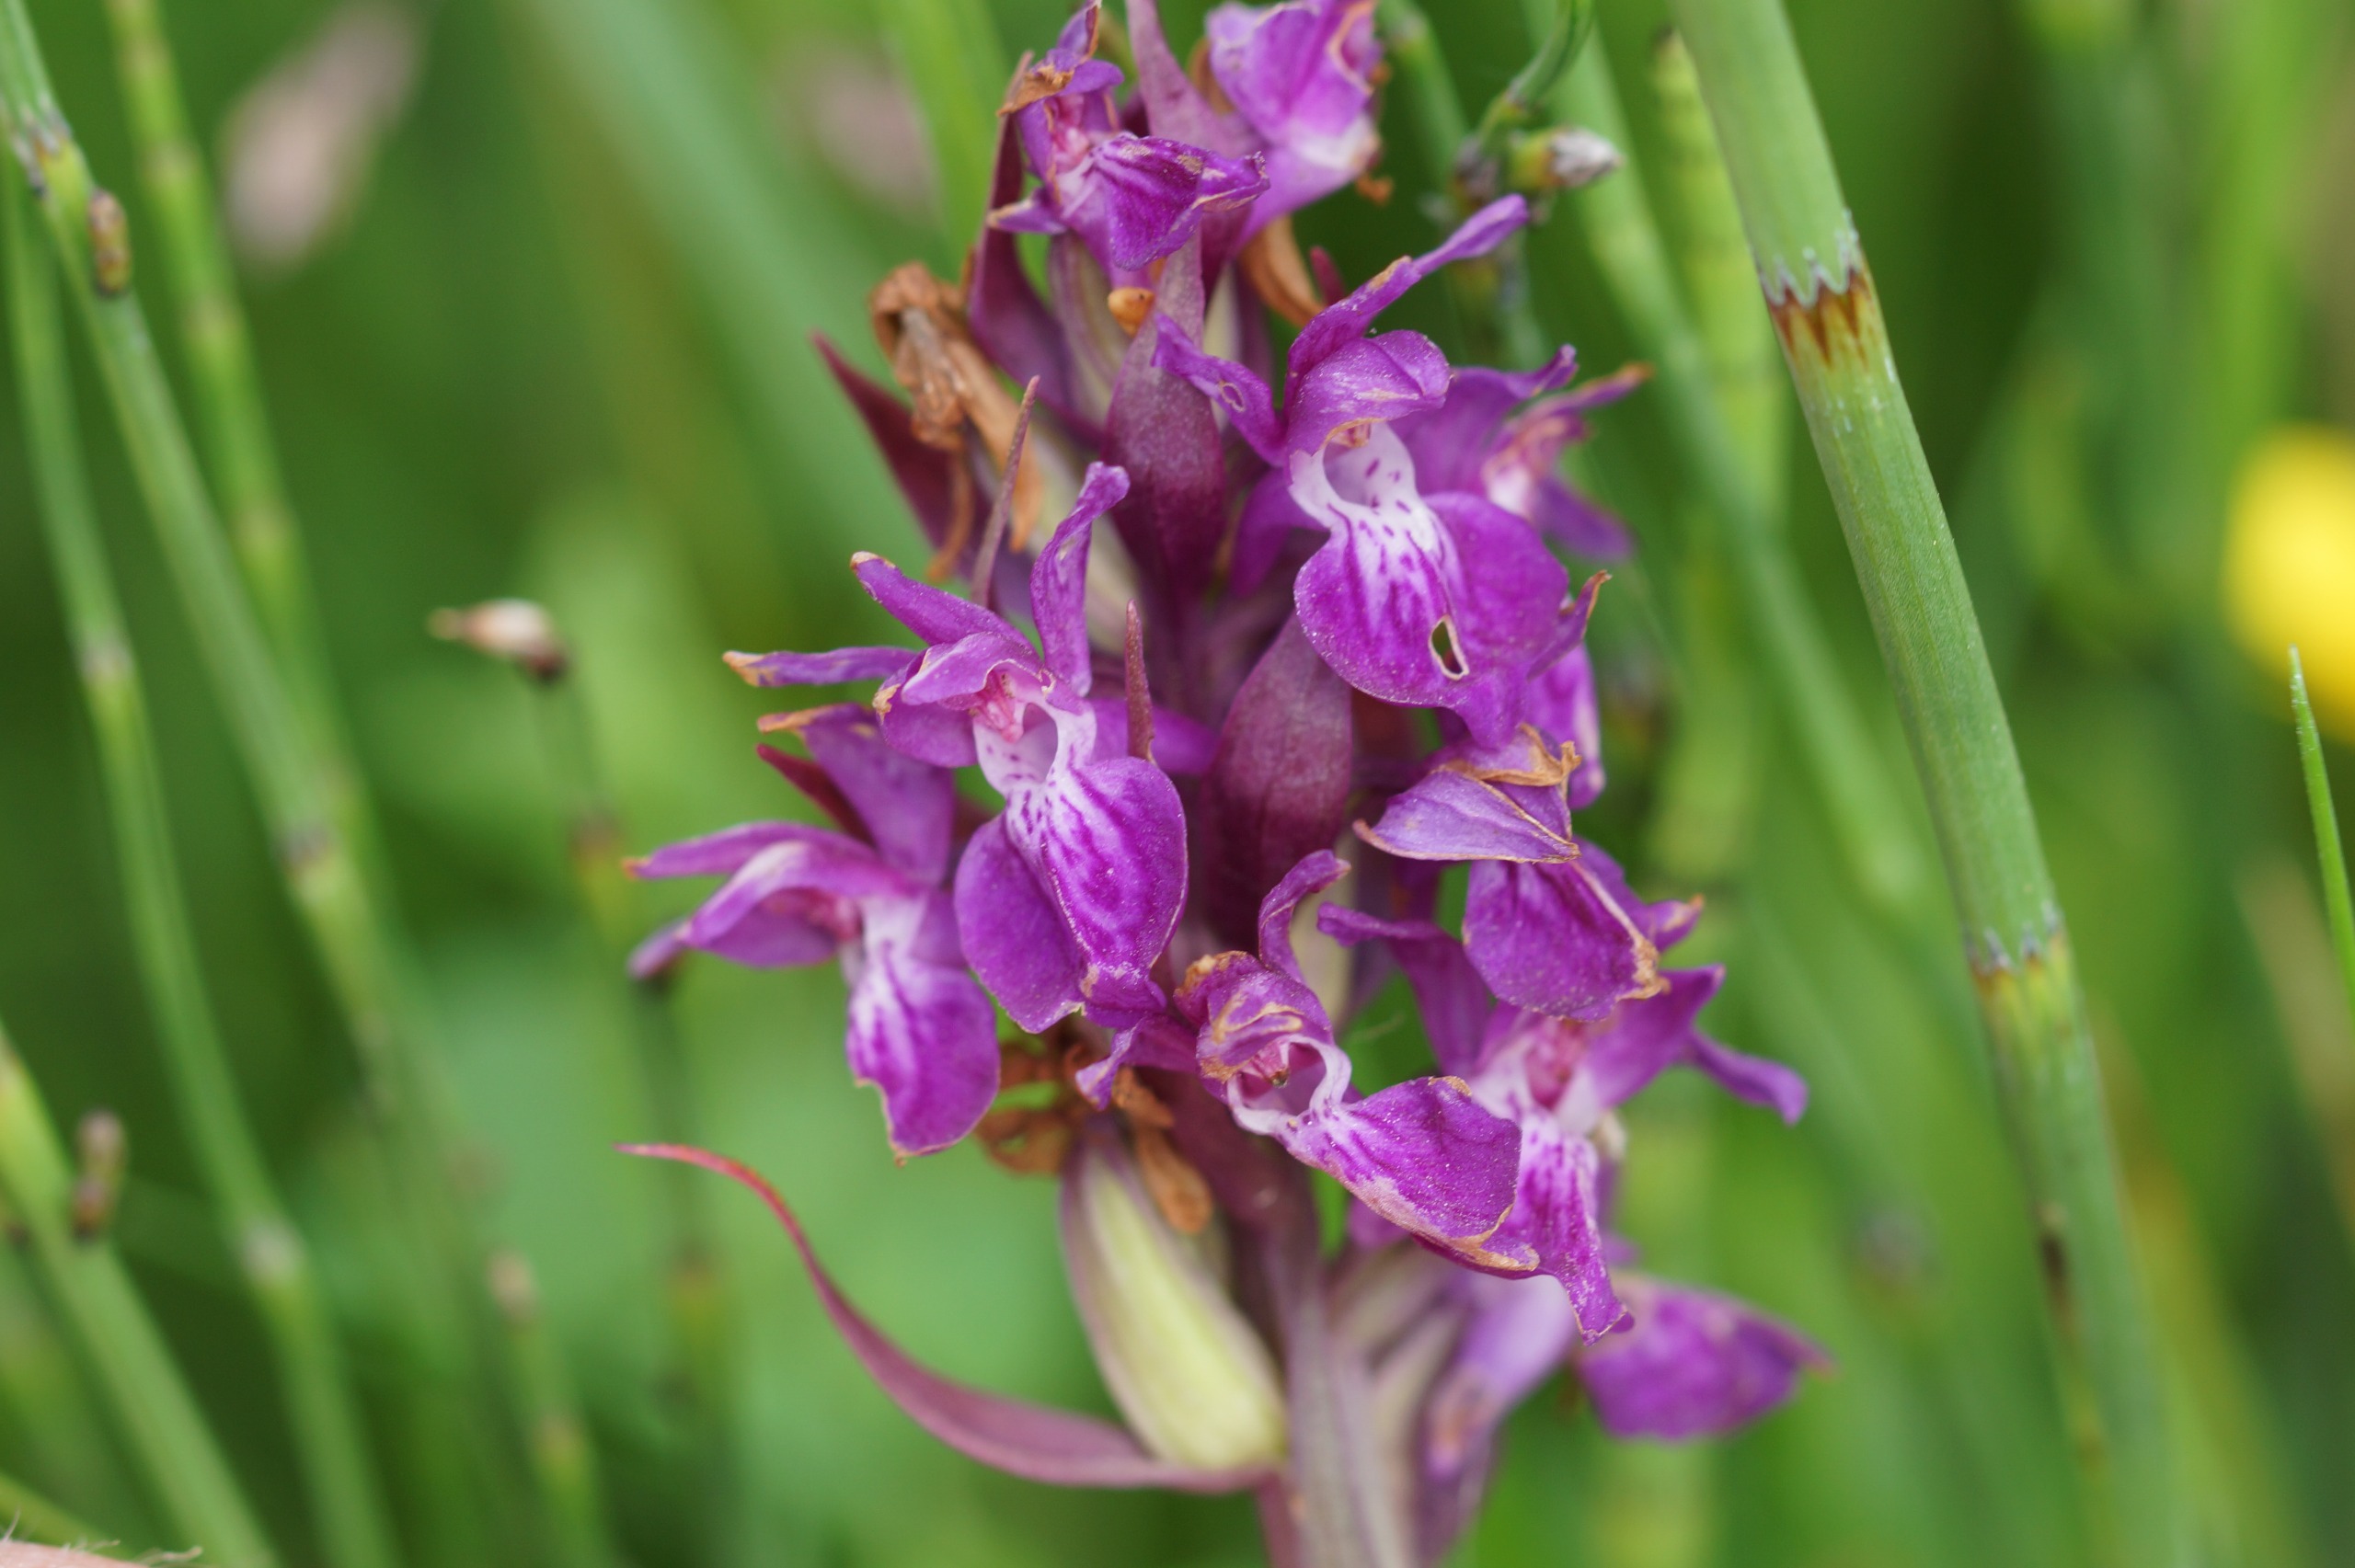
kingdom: Plantae
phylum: Tracheophyta
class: Liliopsida
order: Asparagales
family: Orchidaceae
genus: Dactylorhiza
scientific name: Dactylorhiza majalis
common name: Maj-gøgeurt
